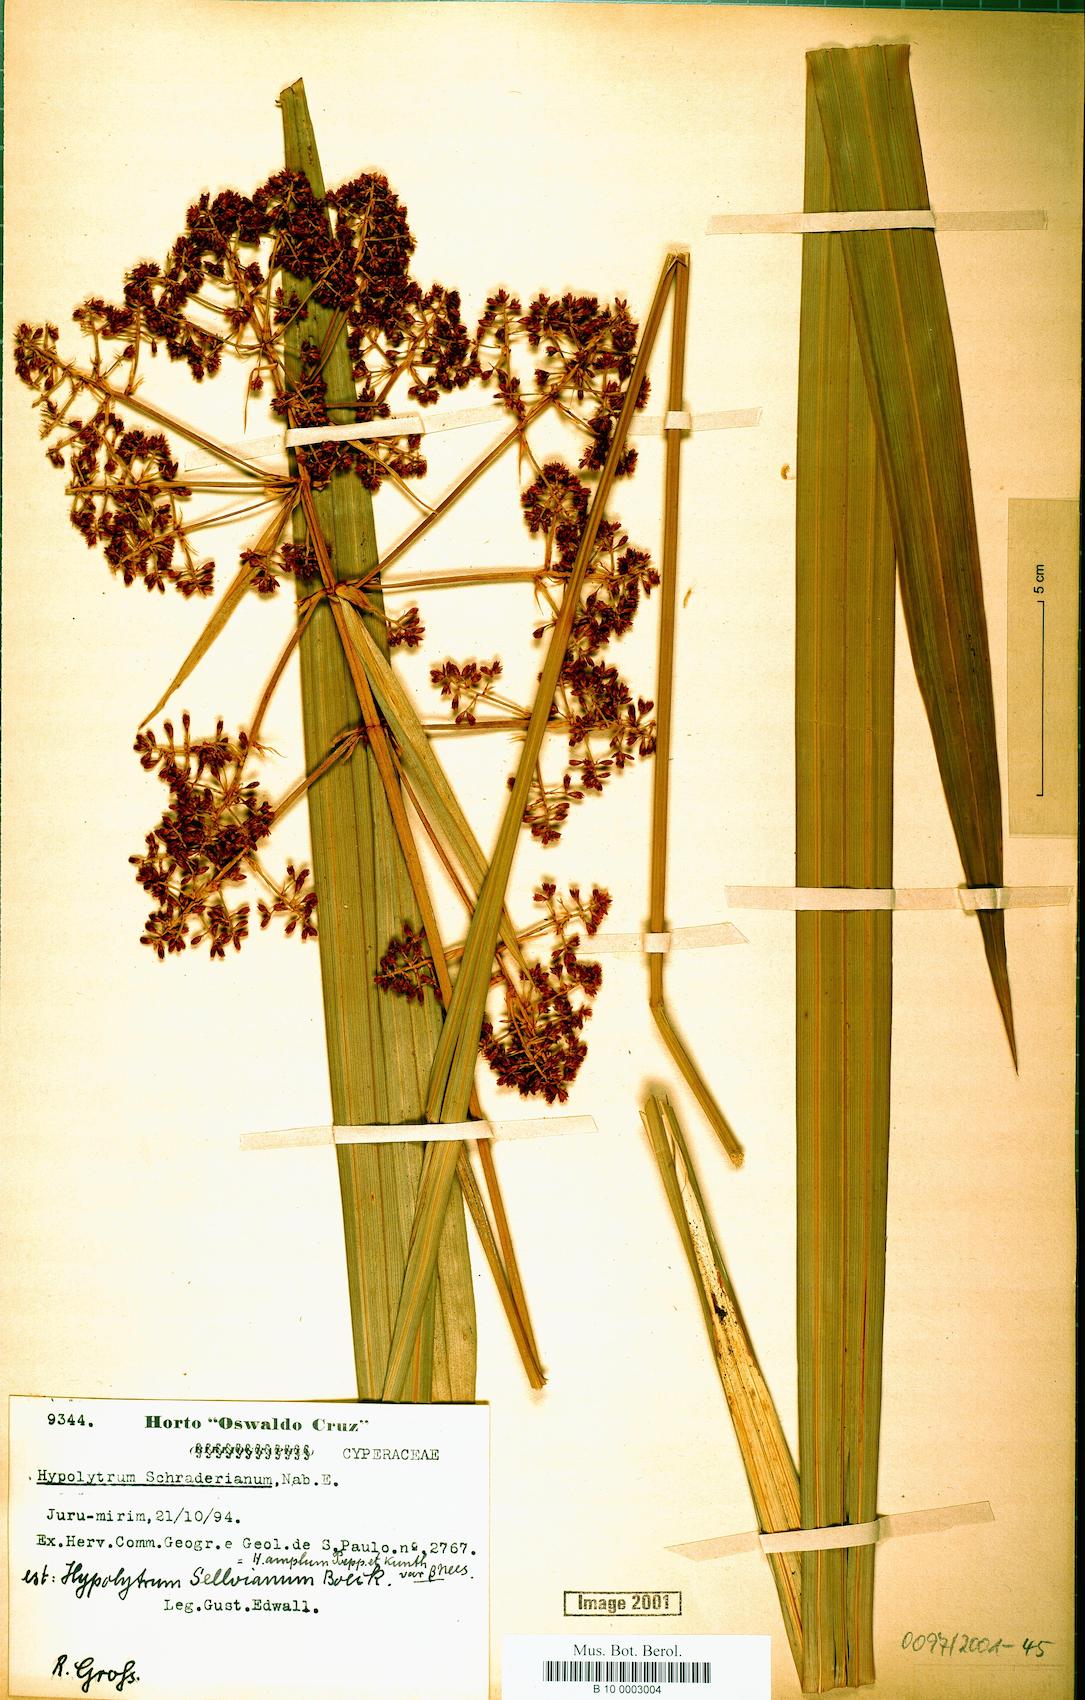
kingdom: Plantae
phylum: Tracheophyta
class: Liliopsida
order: Poales
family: Cyperaceae
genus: Hypolytrum
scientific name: Hypolytrum schraderianum
